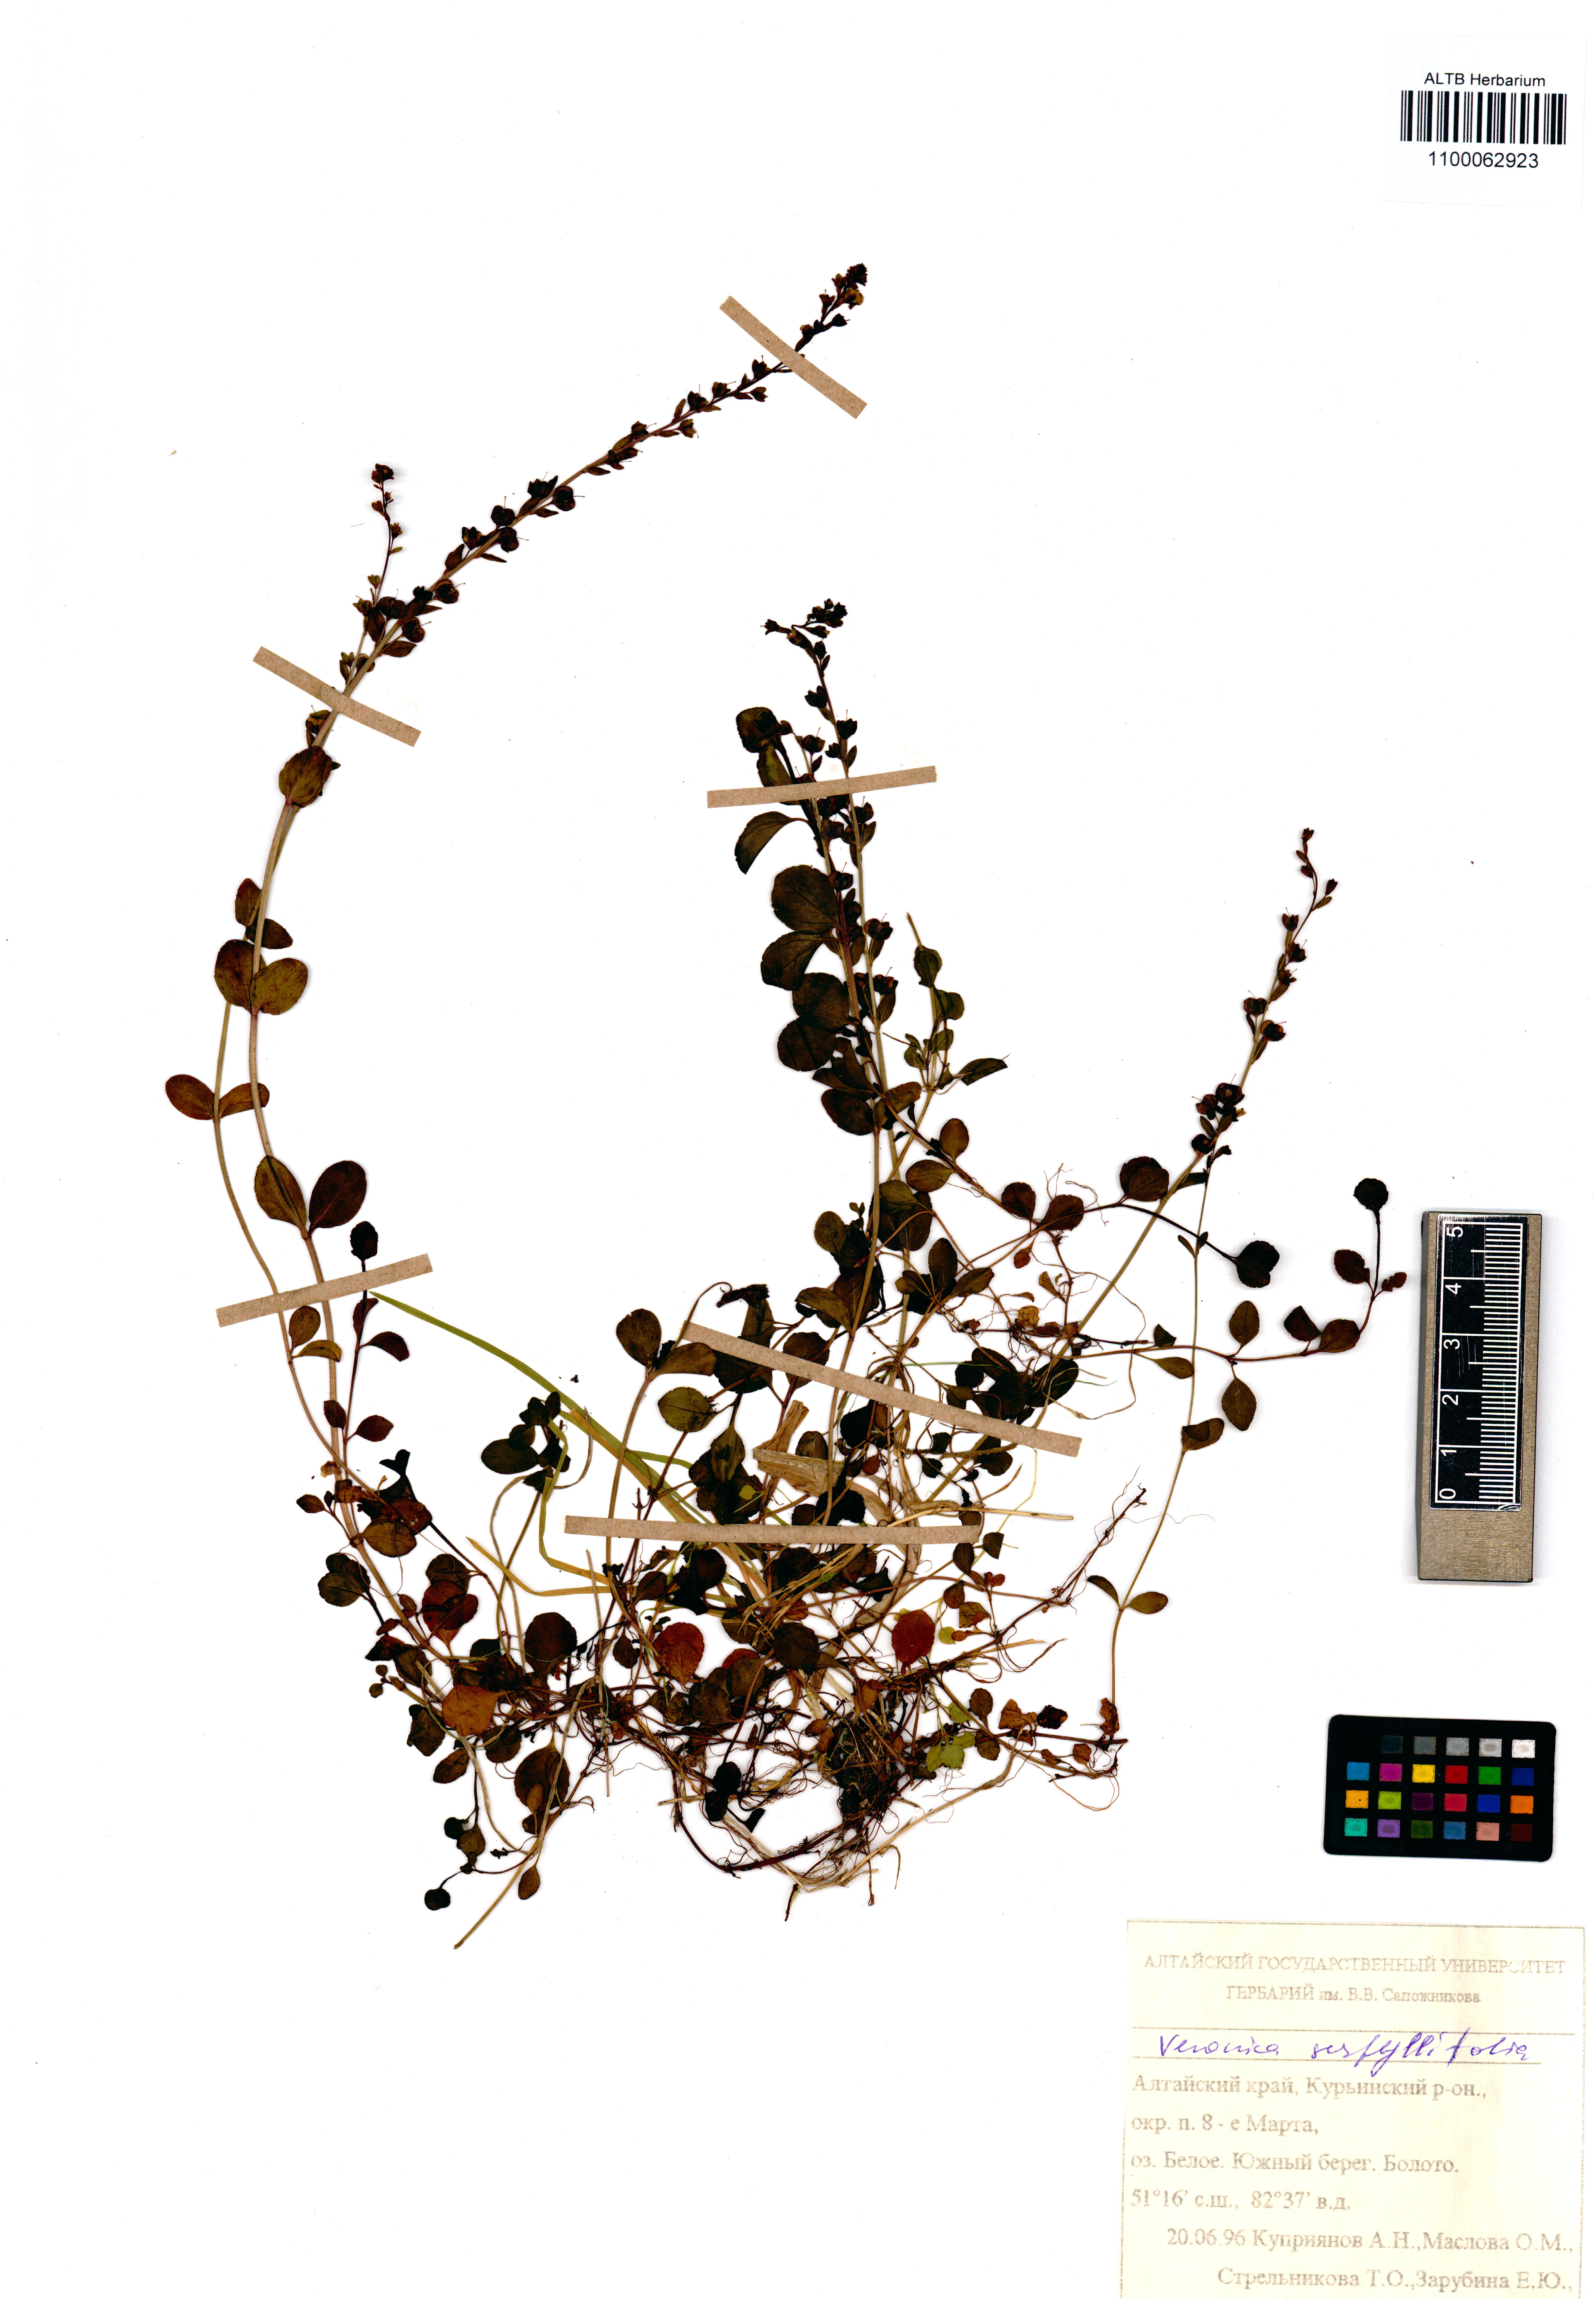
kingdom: Plantae
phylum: Tracheophyta
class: Magnoliopsida
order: Lamiales
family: Plantaginaceae
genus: Veronica
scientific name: Veronica serpyllifolia
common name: Thyme-leaved speedwell
